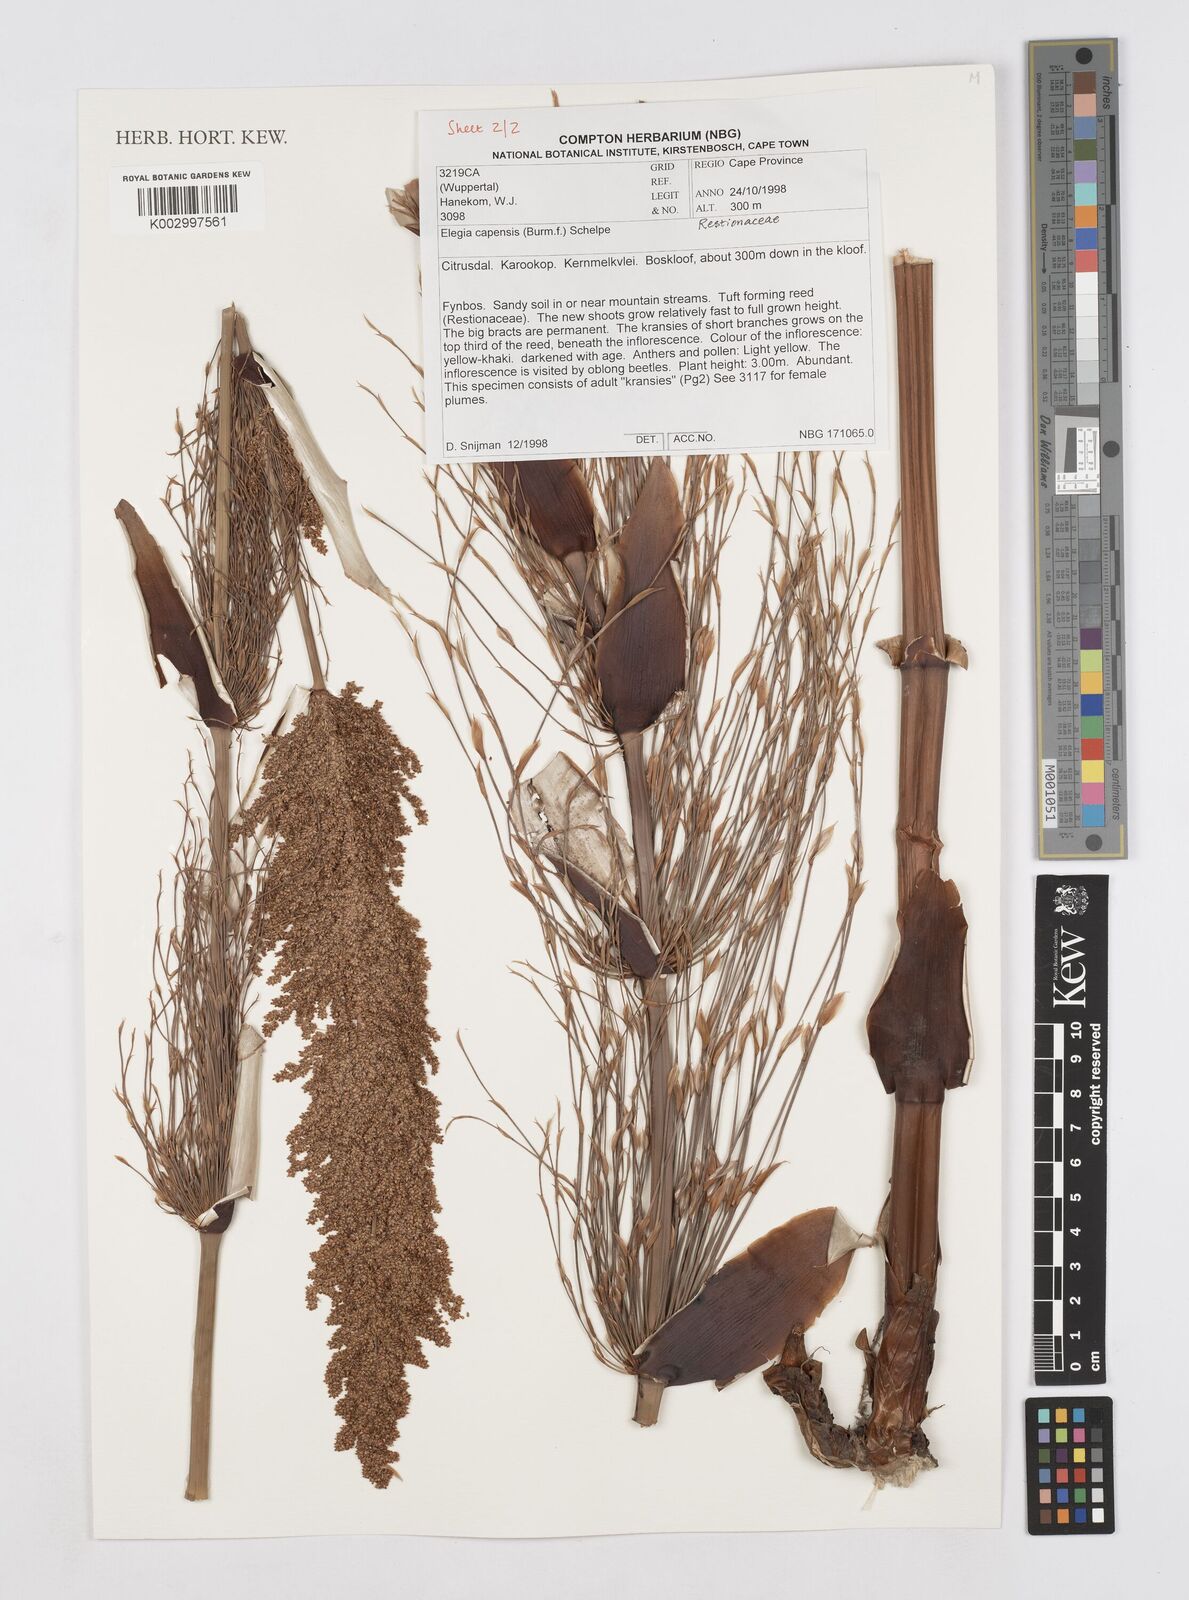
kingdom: Plantae
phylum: Tracheophyta
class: Liliopsida
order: Poales
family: Restionaceae
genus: Elegia
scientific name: Elegia capensis
